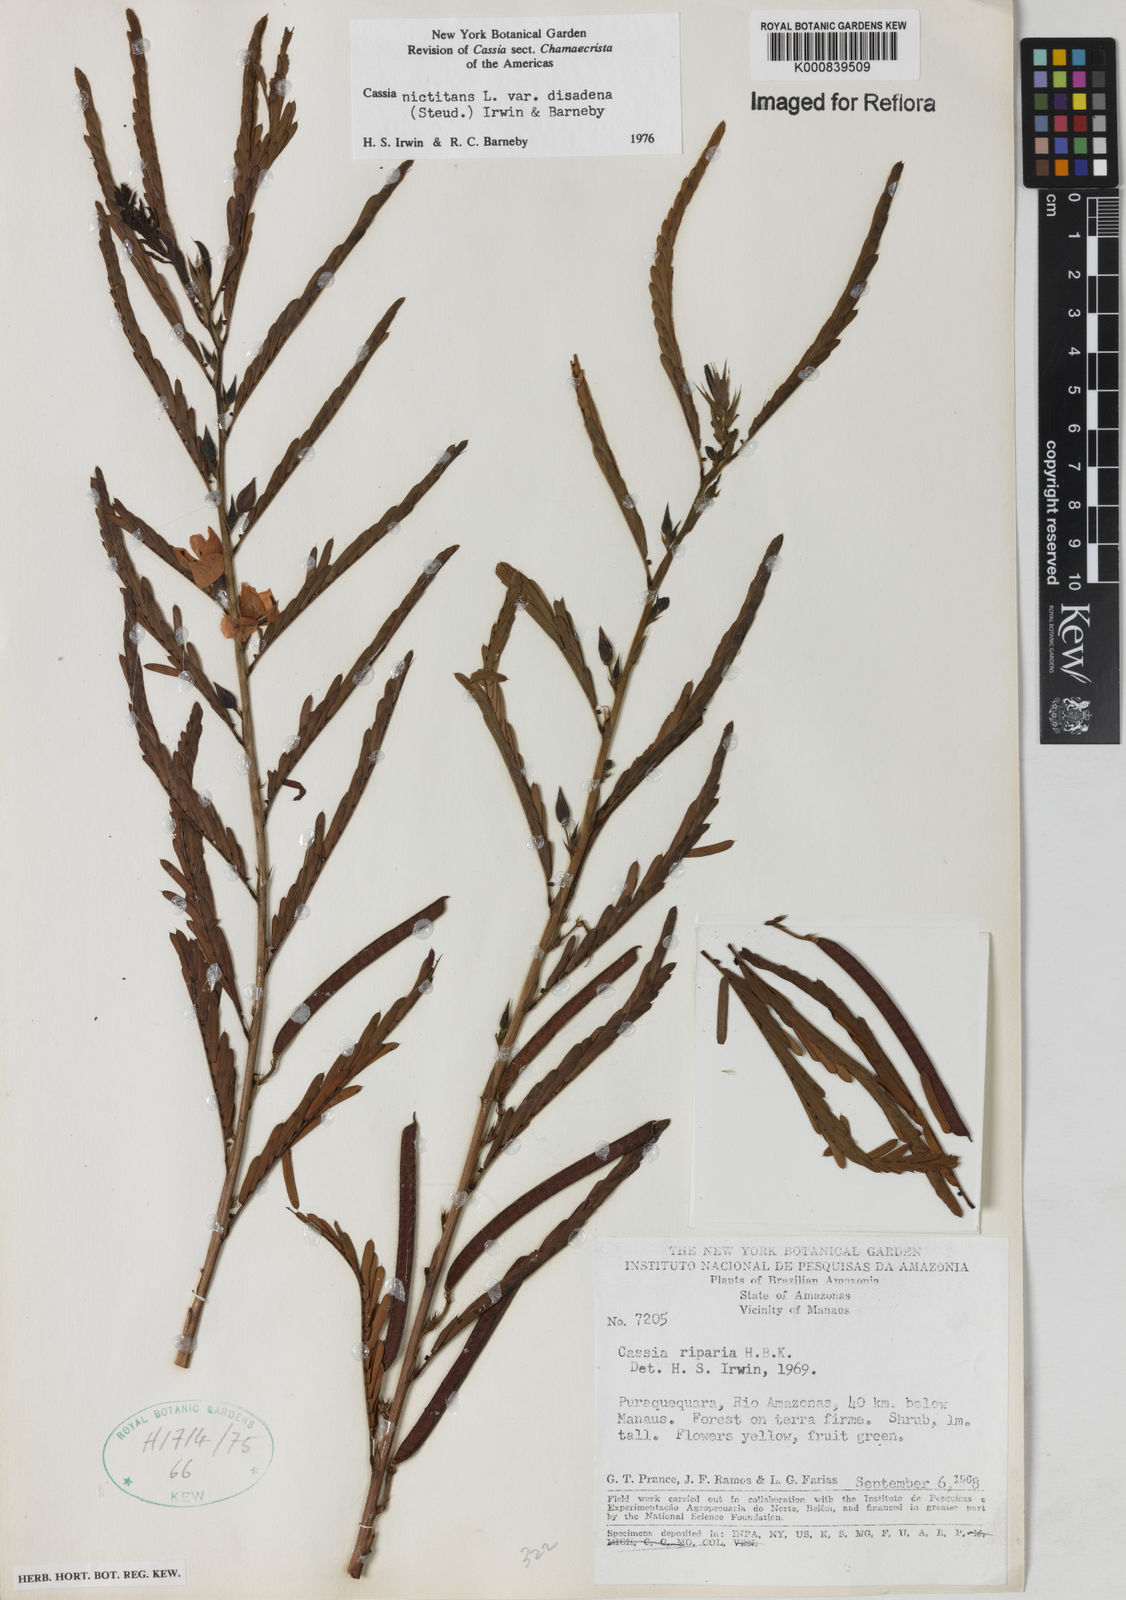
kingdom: Plantae
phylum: Tracheophyta
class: Magnoliopsida
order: Fabales
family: Fabaceae
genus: Chamaecrista
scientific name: Chamaecrista nictitans
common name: Sensitive cassia
